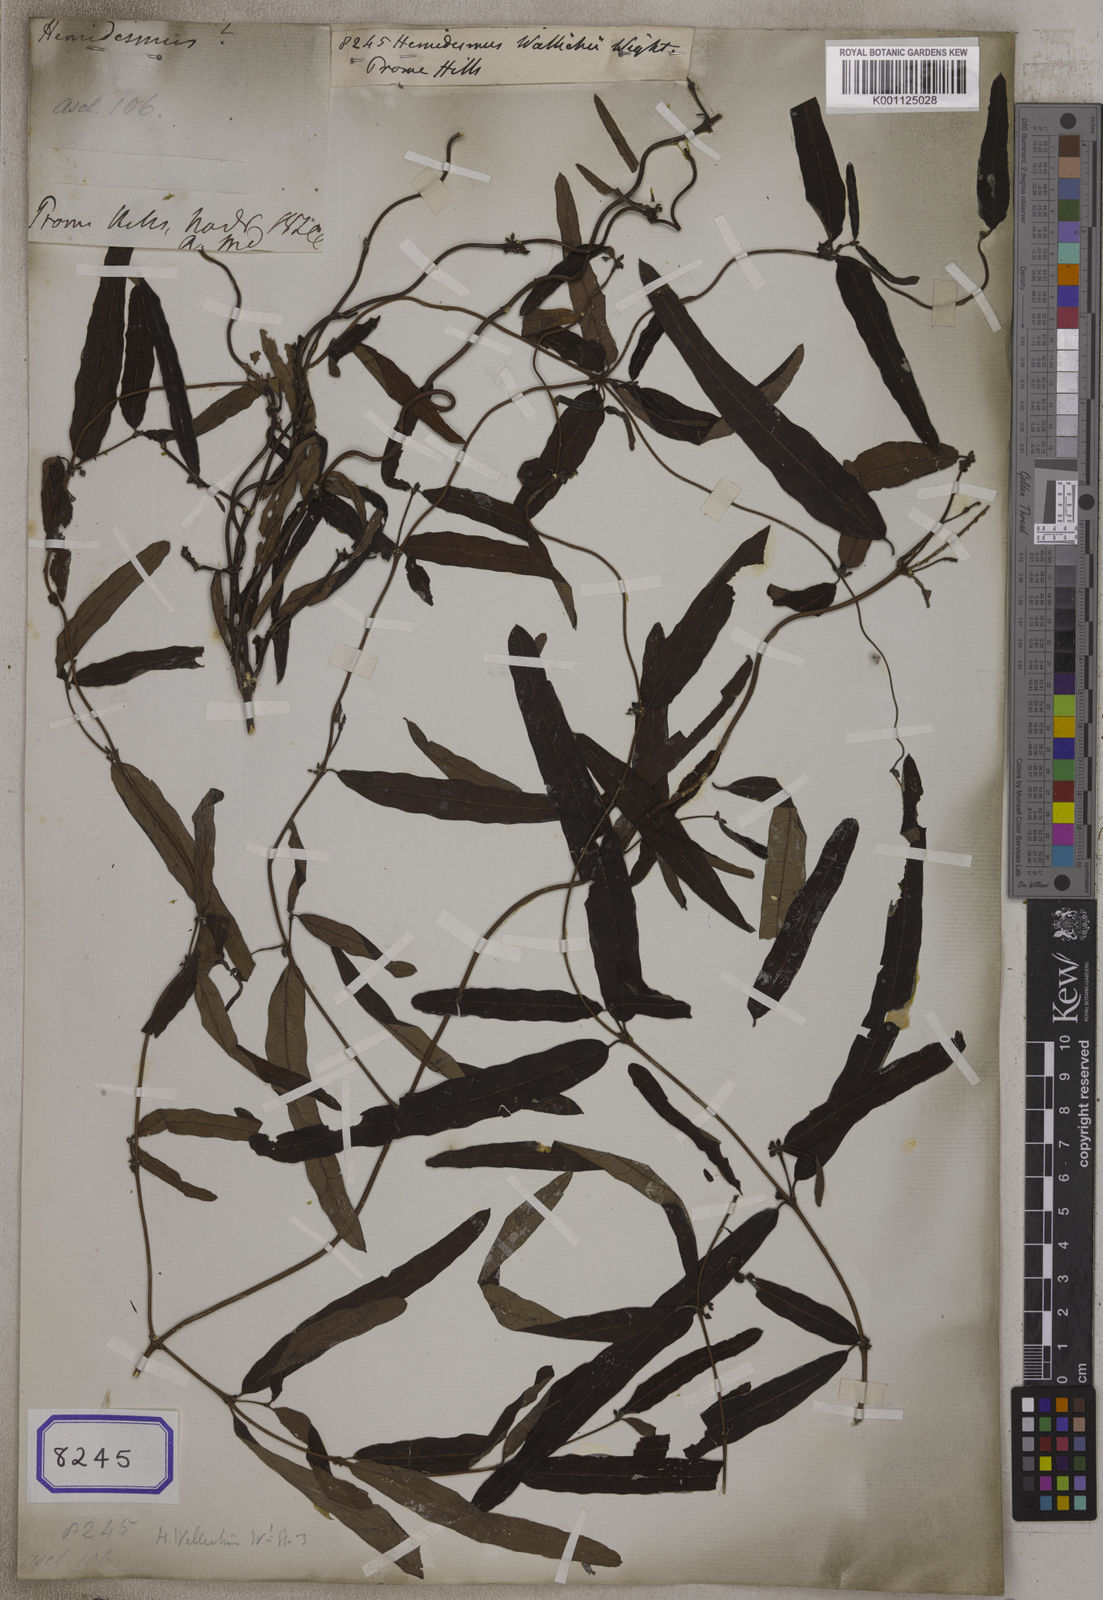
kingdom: Plantae
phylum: Tracheophyta
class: Magnoliopsida
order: Gentianales
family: Apocynaceae
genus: Finlaysonia
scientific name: Finlaysonia wallichii
